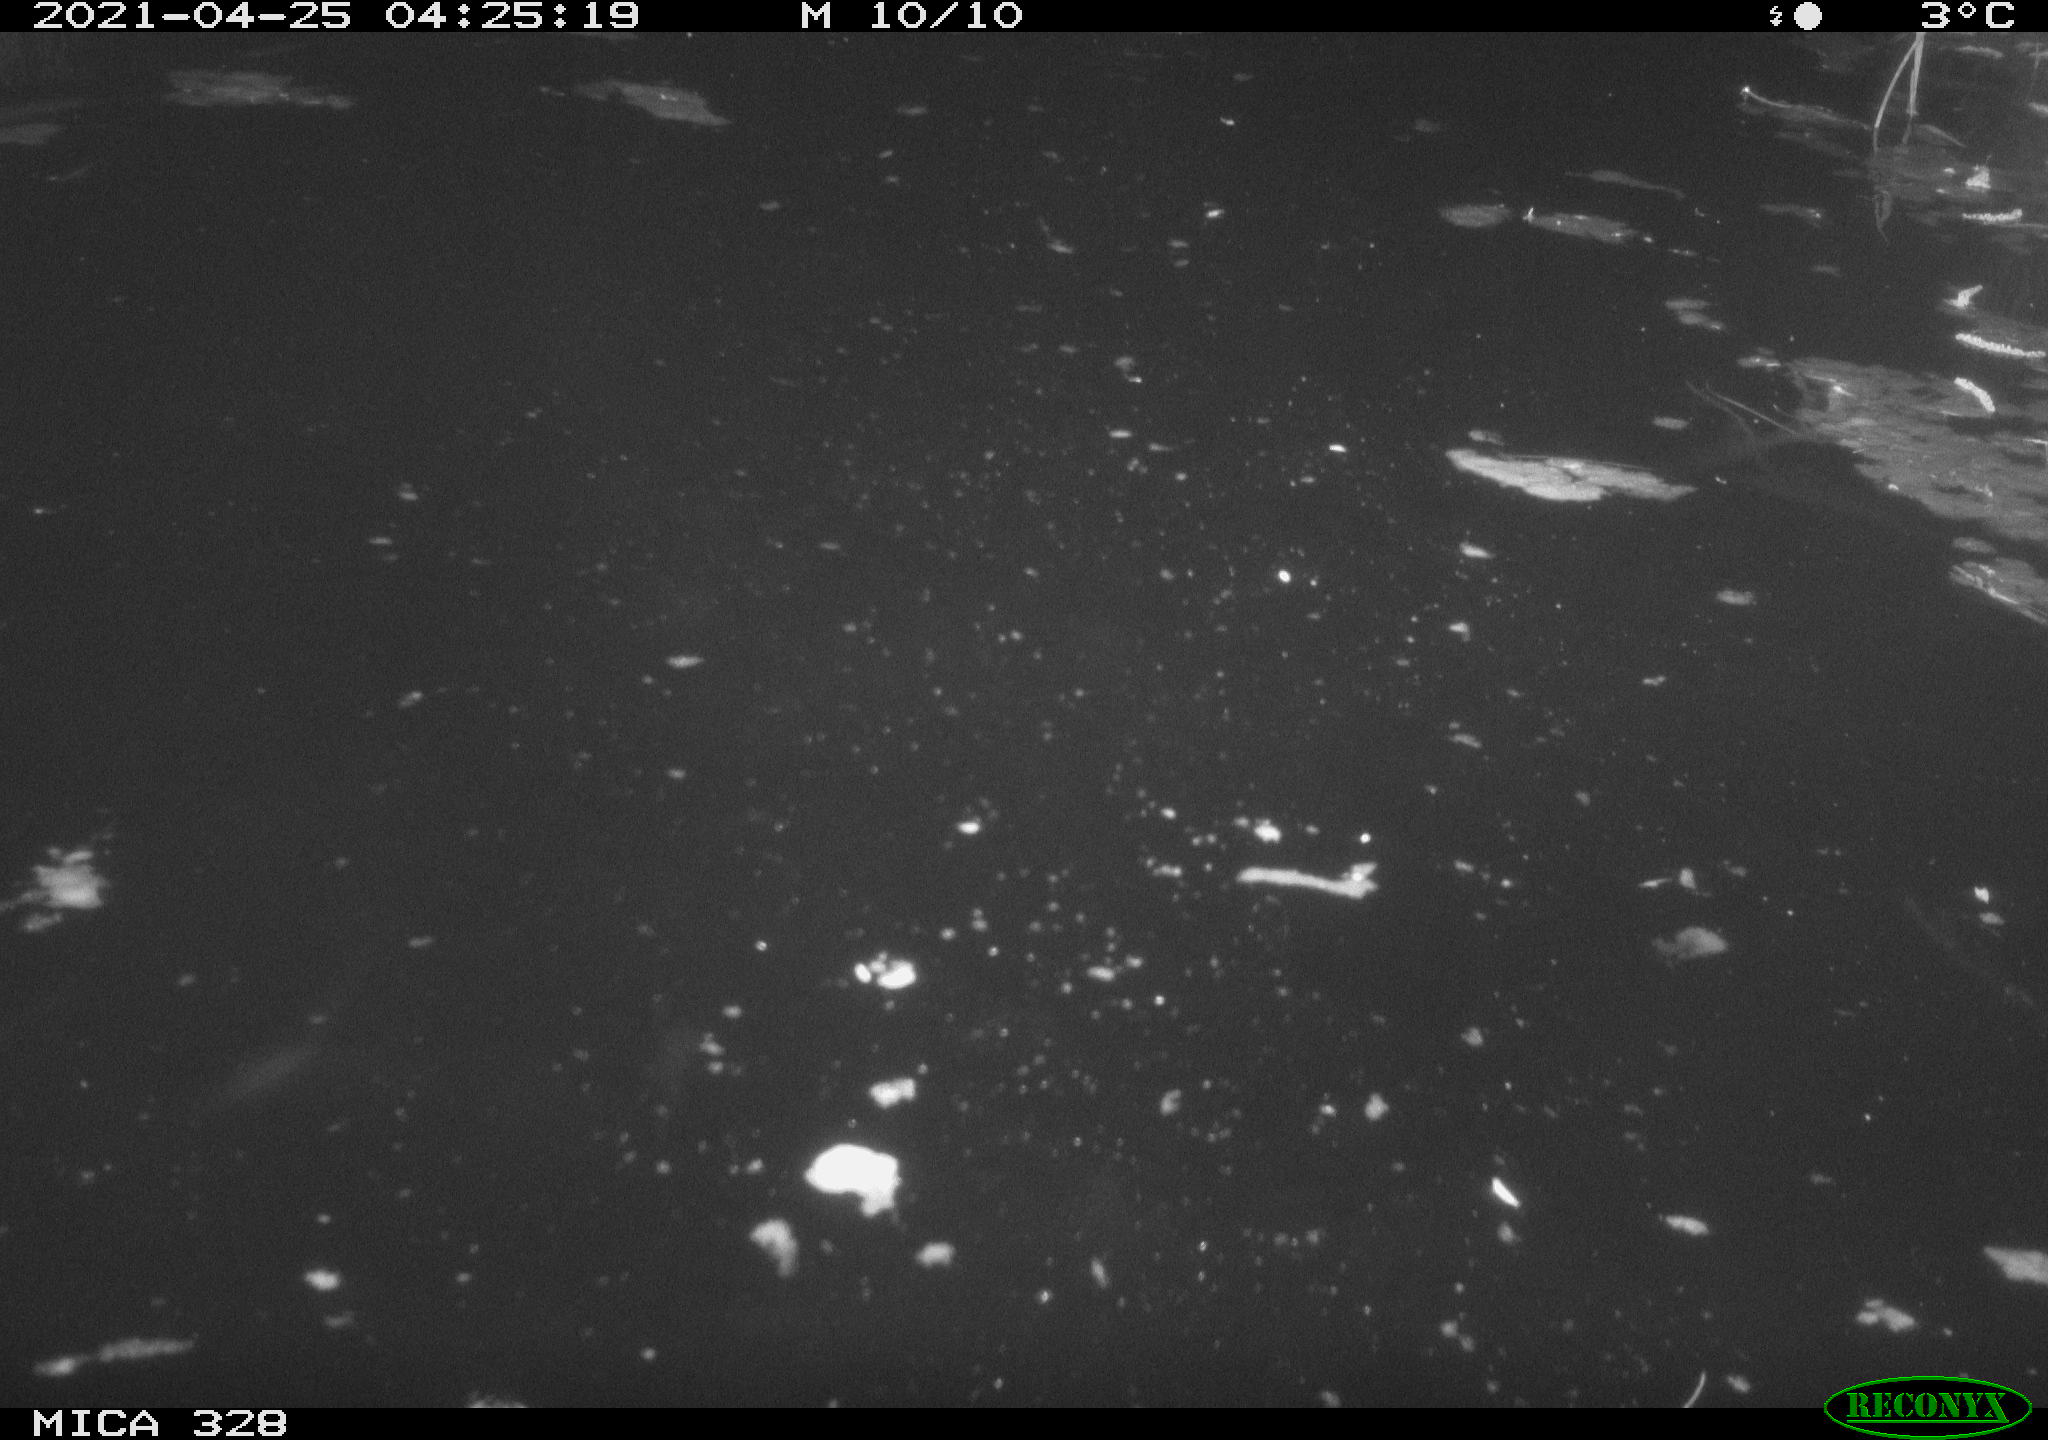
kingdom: Animalia
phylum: Chordata
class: Mammalia
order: Rodentia
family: Cricetidae
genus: Ondatra
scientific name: Ondatra zibethicus
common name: Muskrat
